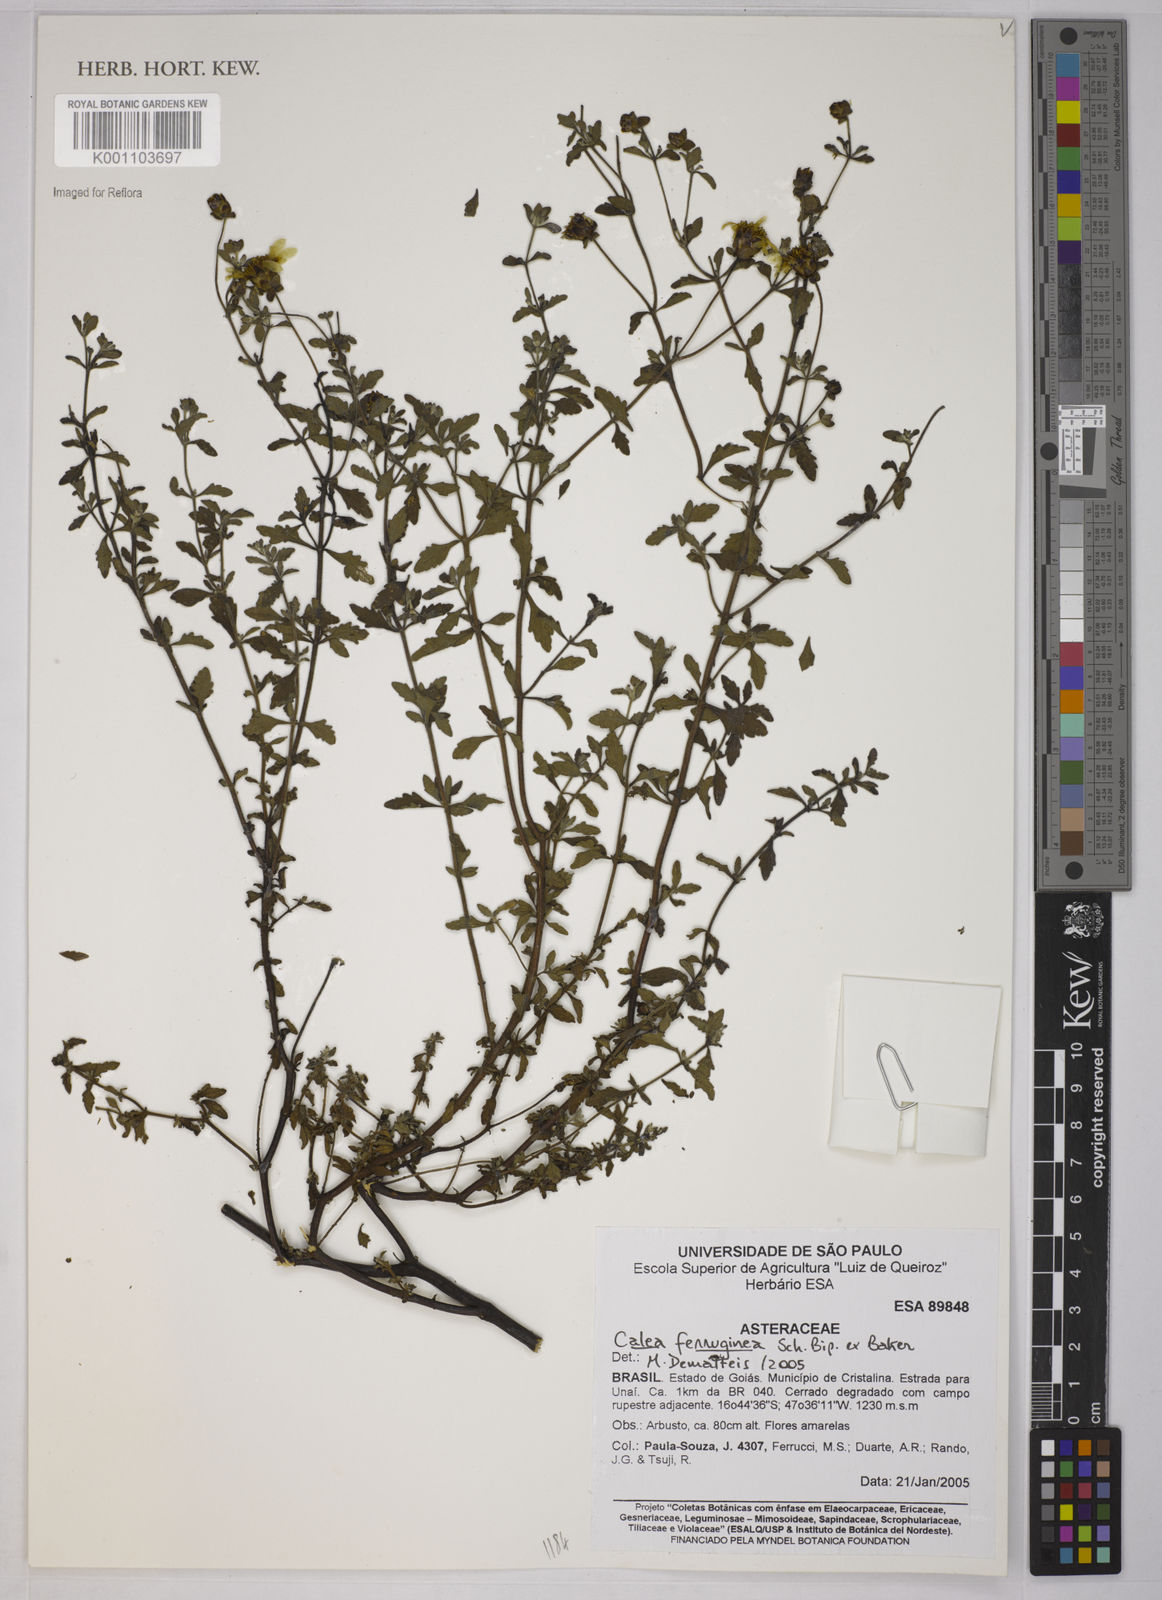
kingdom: Plantae
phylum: Tracheophyta
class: Magnoliopsida
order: Asterales
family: Asteraceae
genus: Calea
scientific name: Calea ferruginea
